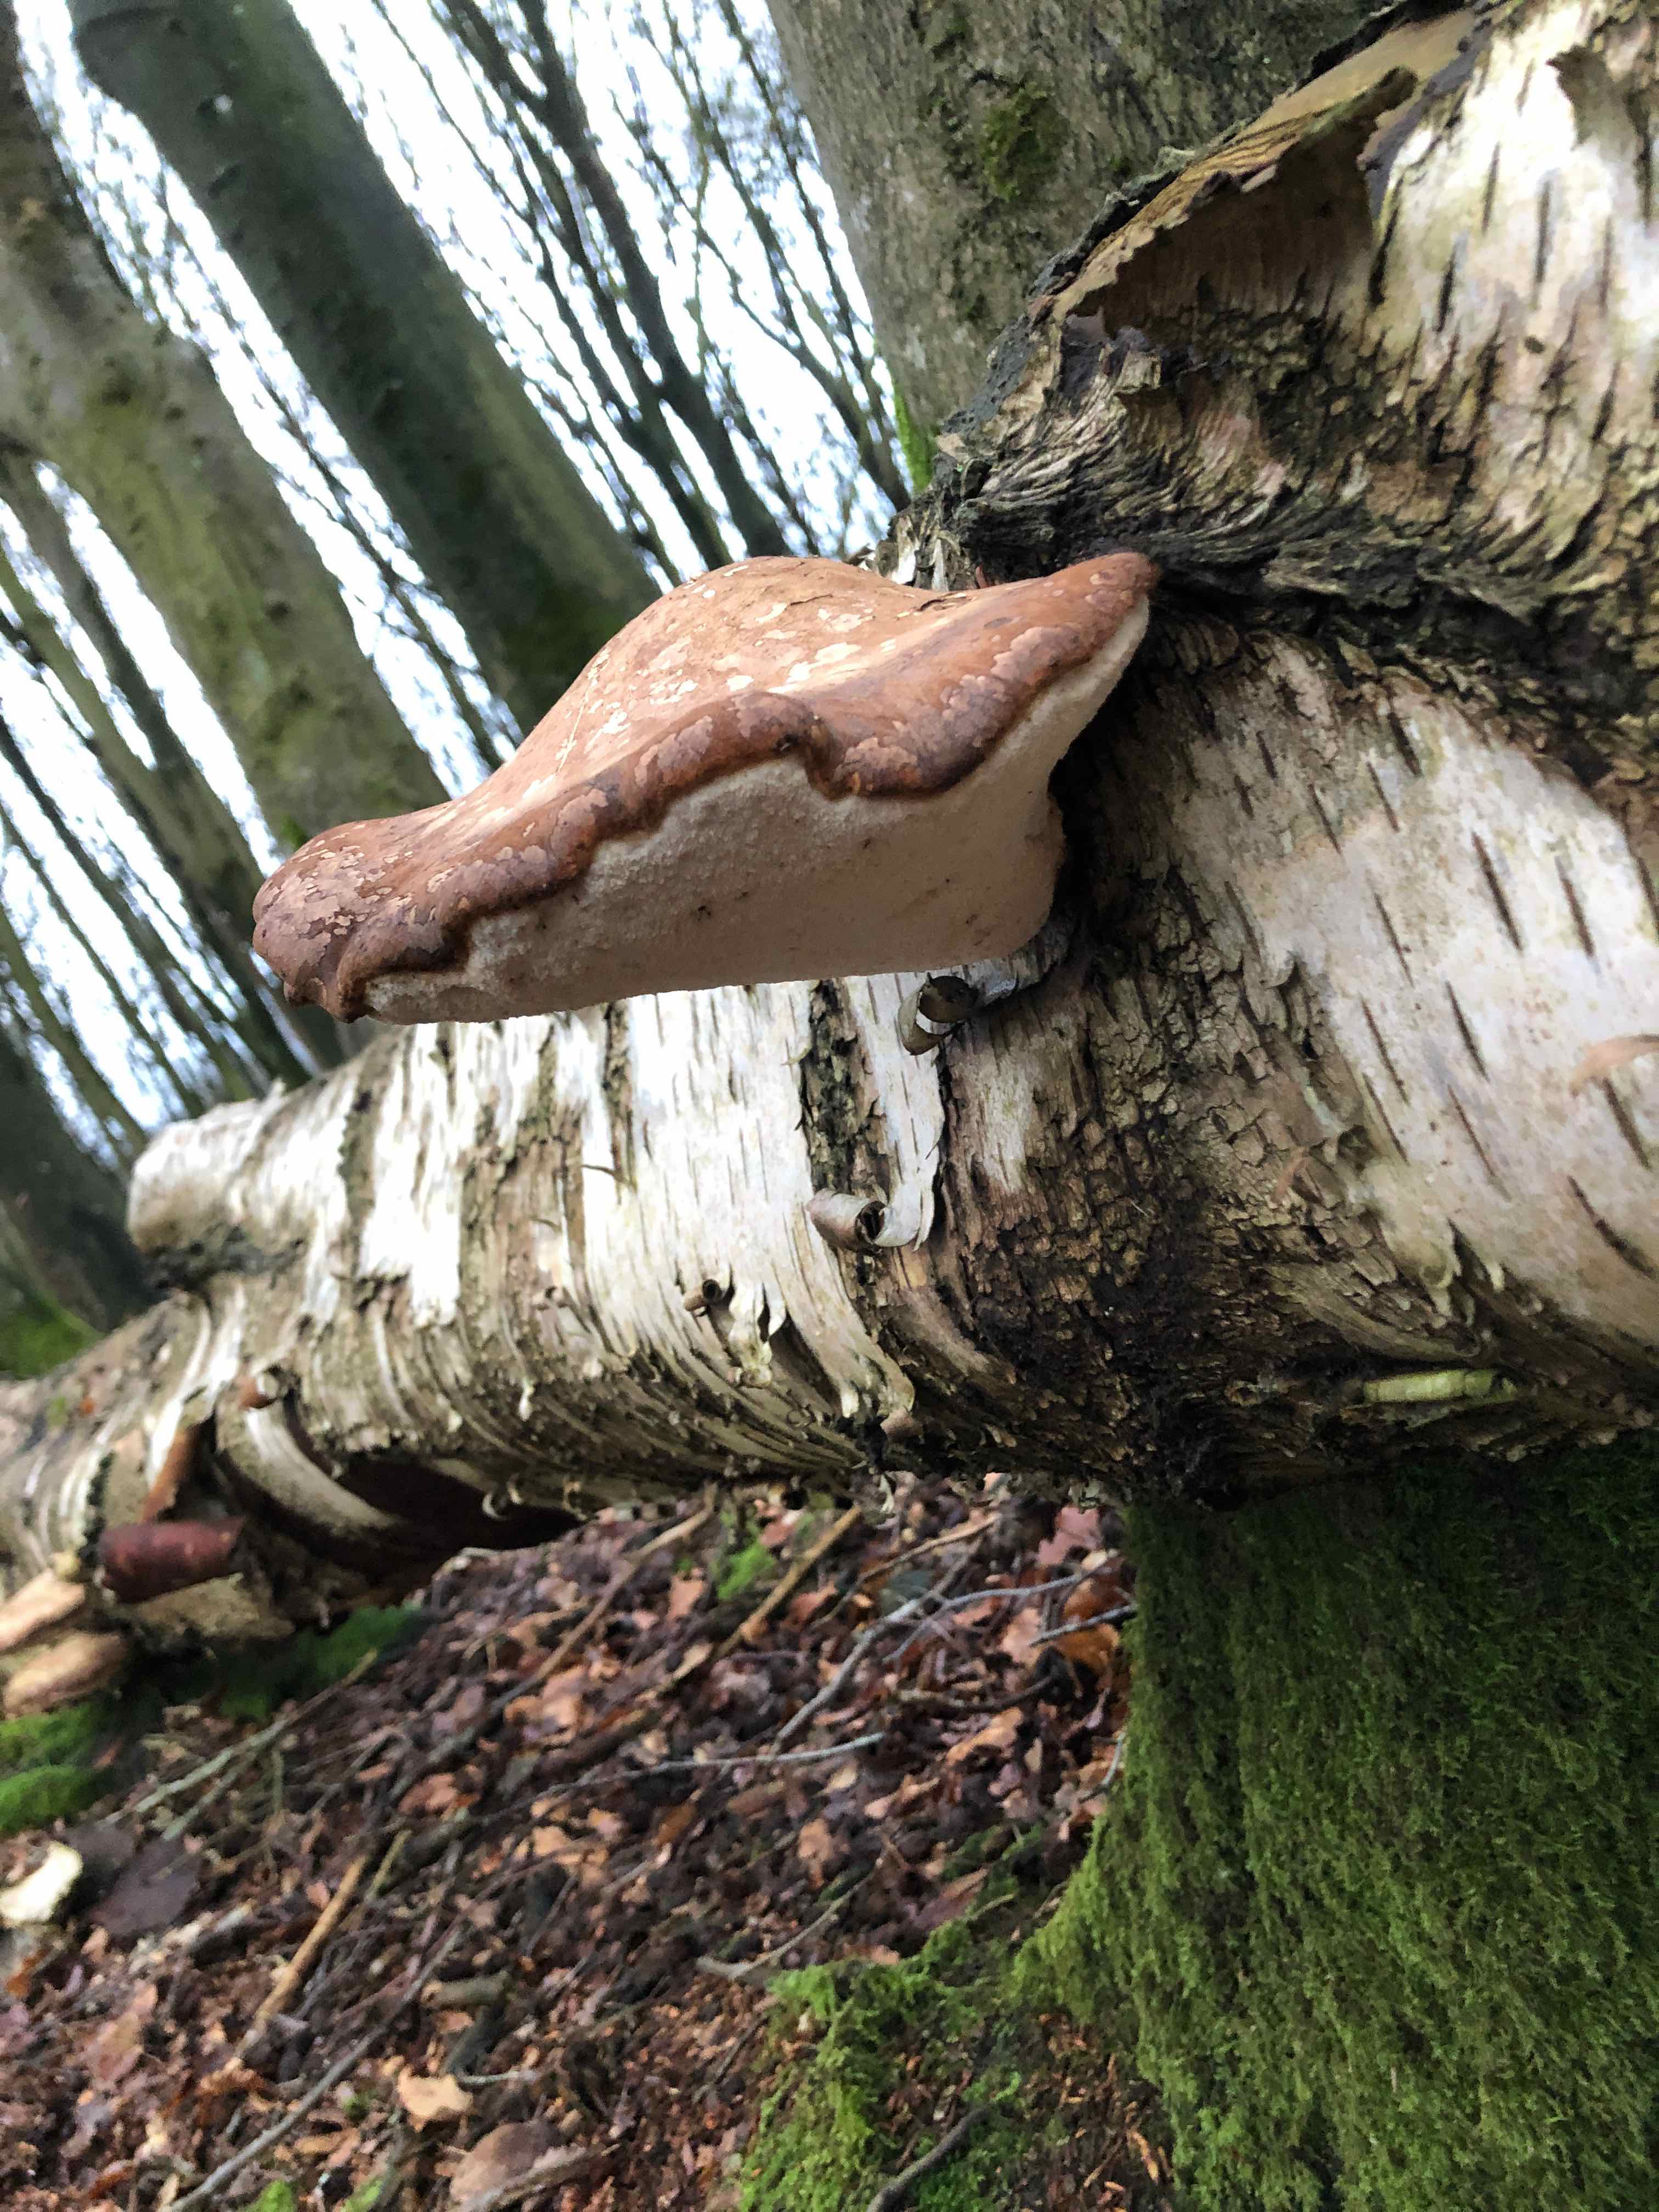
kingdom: Fungi
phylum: Basidiomycota
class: Agaricomycetes
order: Polyporales
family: Fomitopsidaceae
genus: Fomitopsis
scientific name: Fomitopsis betulina
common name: birkeporesvamp
